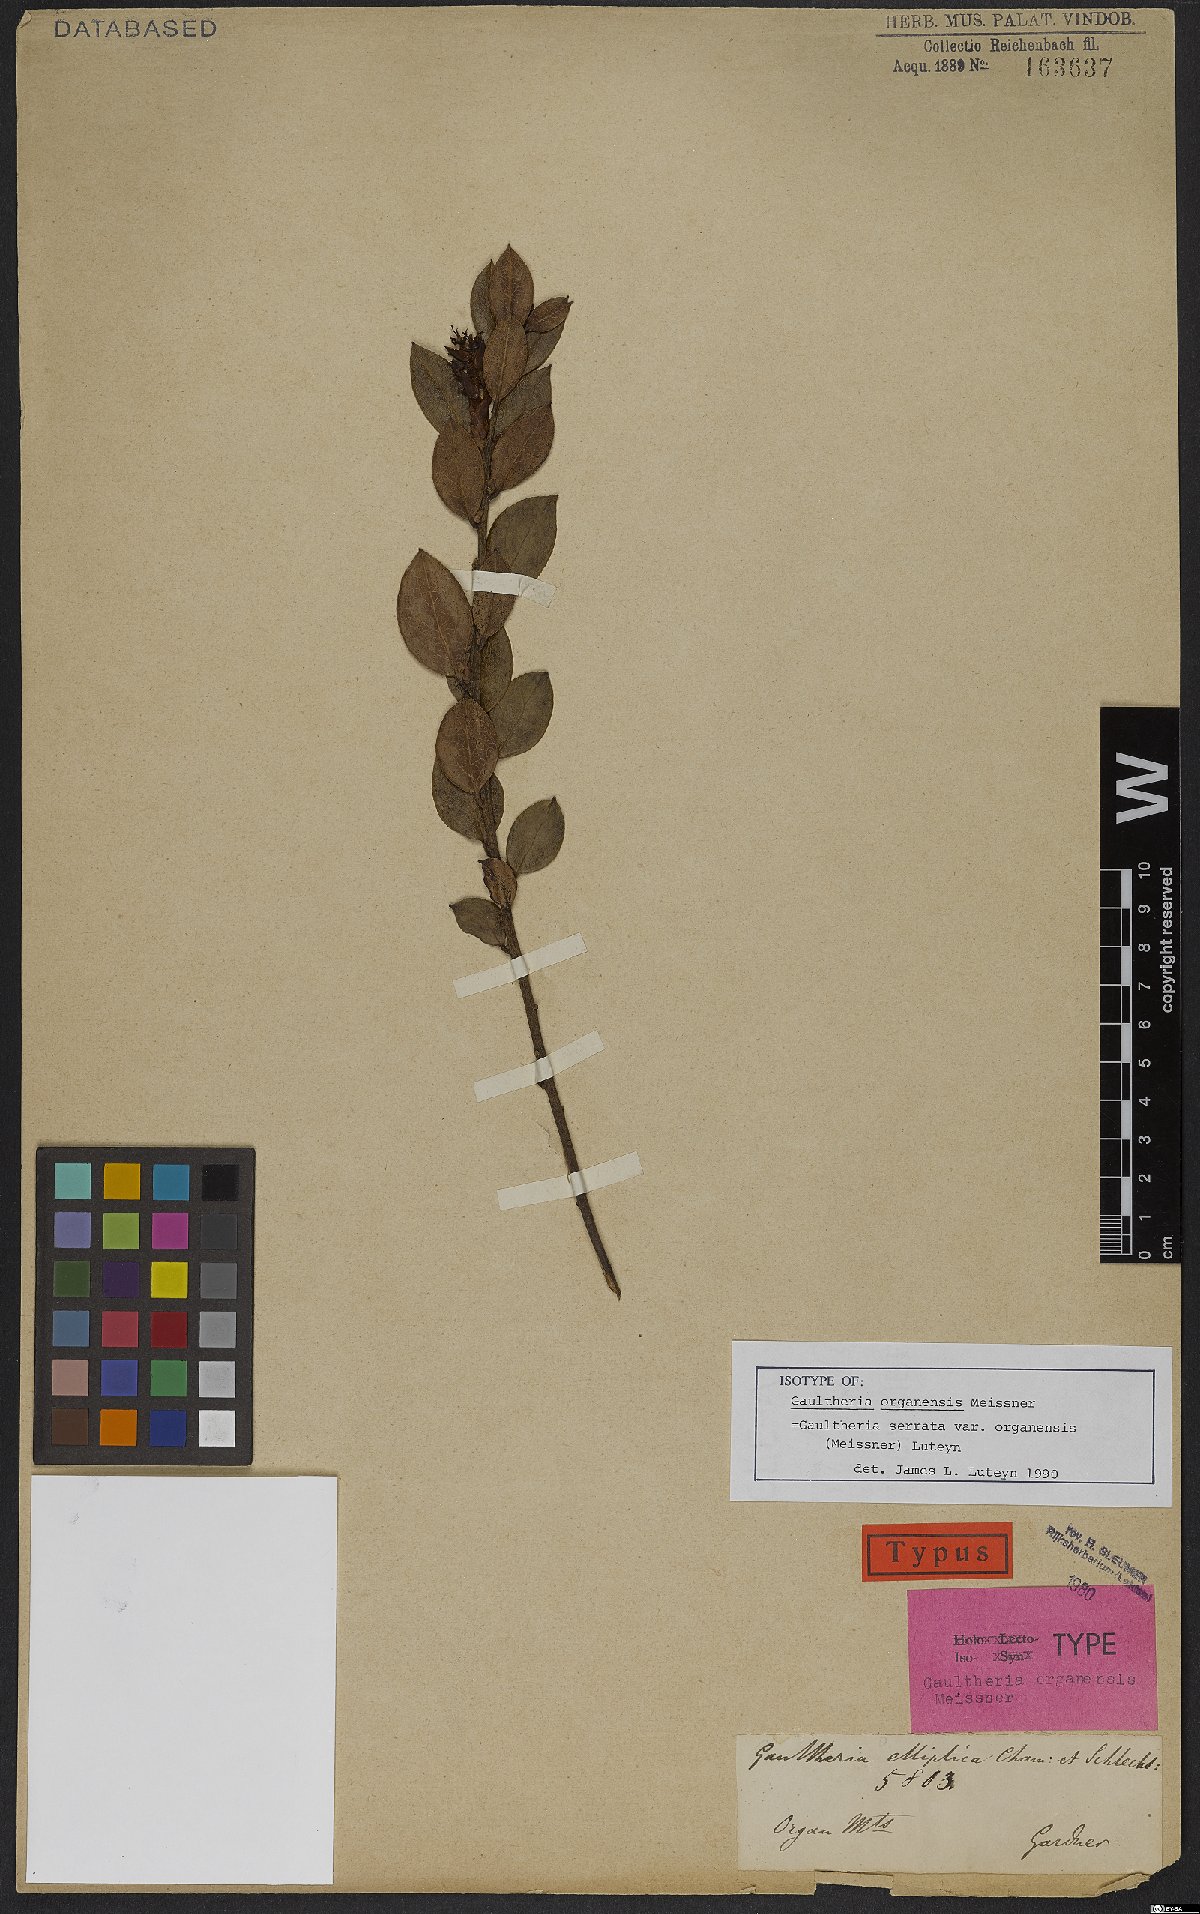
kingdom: Plantae
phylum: Tracheophyta
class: Magnoliopsida
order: Ericales
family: Ericaceae
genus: Gaultheria
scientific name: Gaultheria serrata
